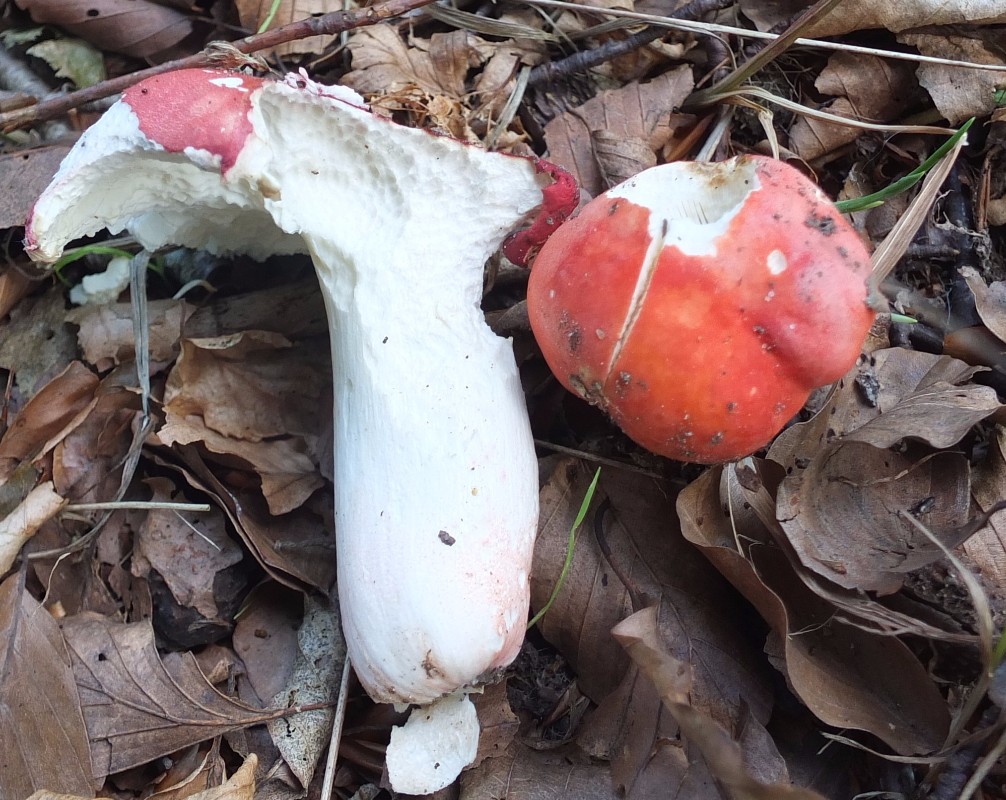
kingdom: Fungi
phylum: Basidiomycota
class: Agaricomycetes
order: Russulales
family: Russulaceae
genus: Russula
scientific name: Russula rosea
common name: fastkødet skørhat
